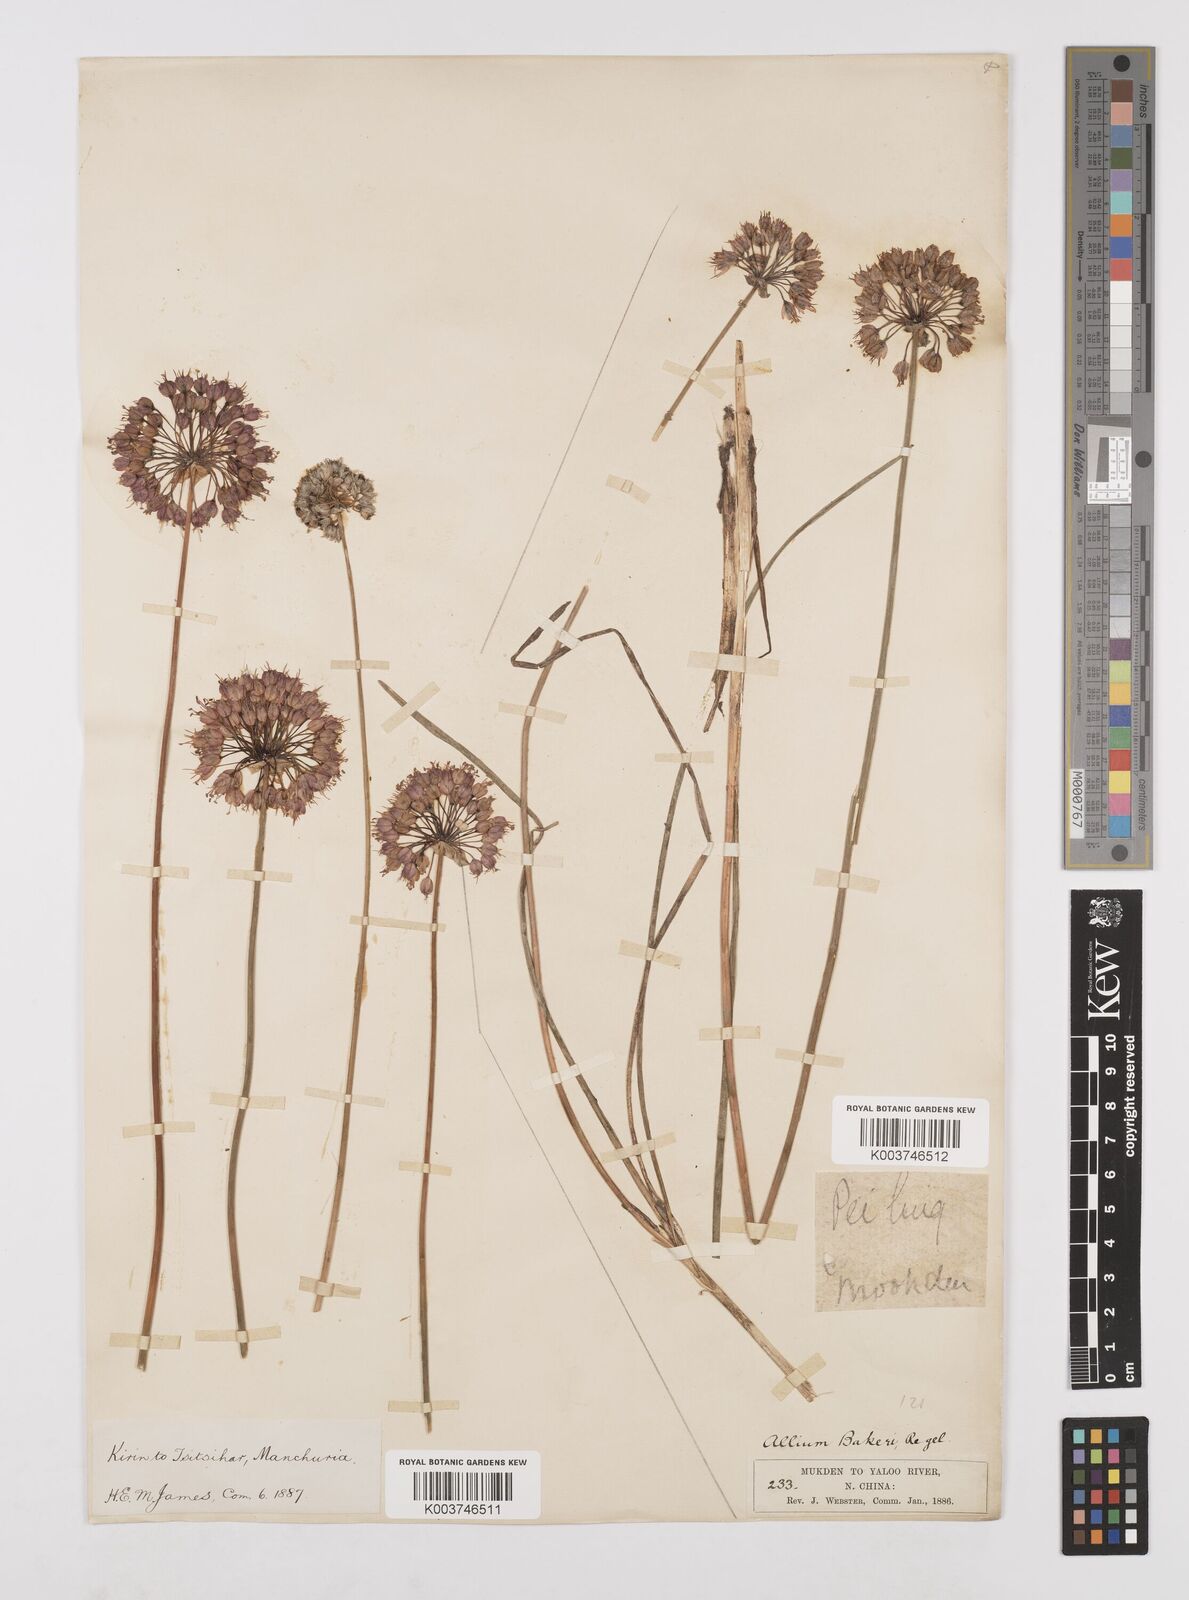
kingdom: Plantae
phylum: Tracheophyta
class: Liliopsida
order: Asparagales
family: Amaryllidaceae
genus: Allium
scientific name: Allium chinense
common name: Japanese scallion
